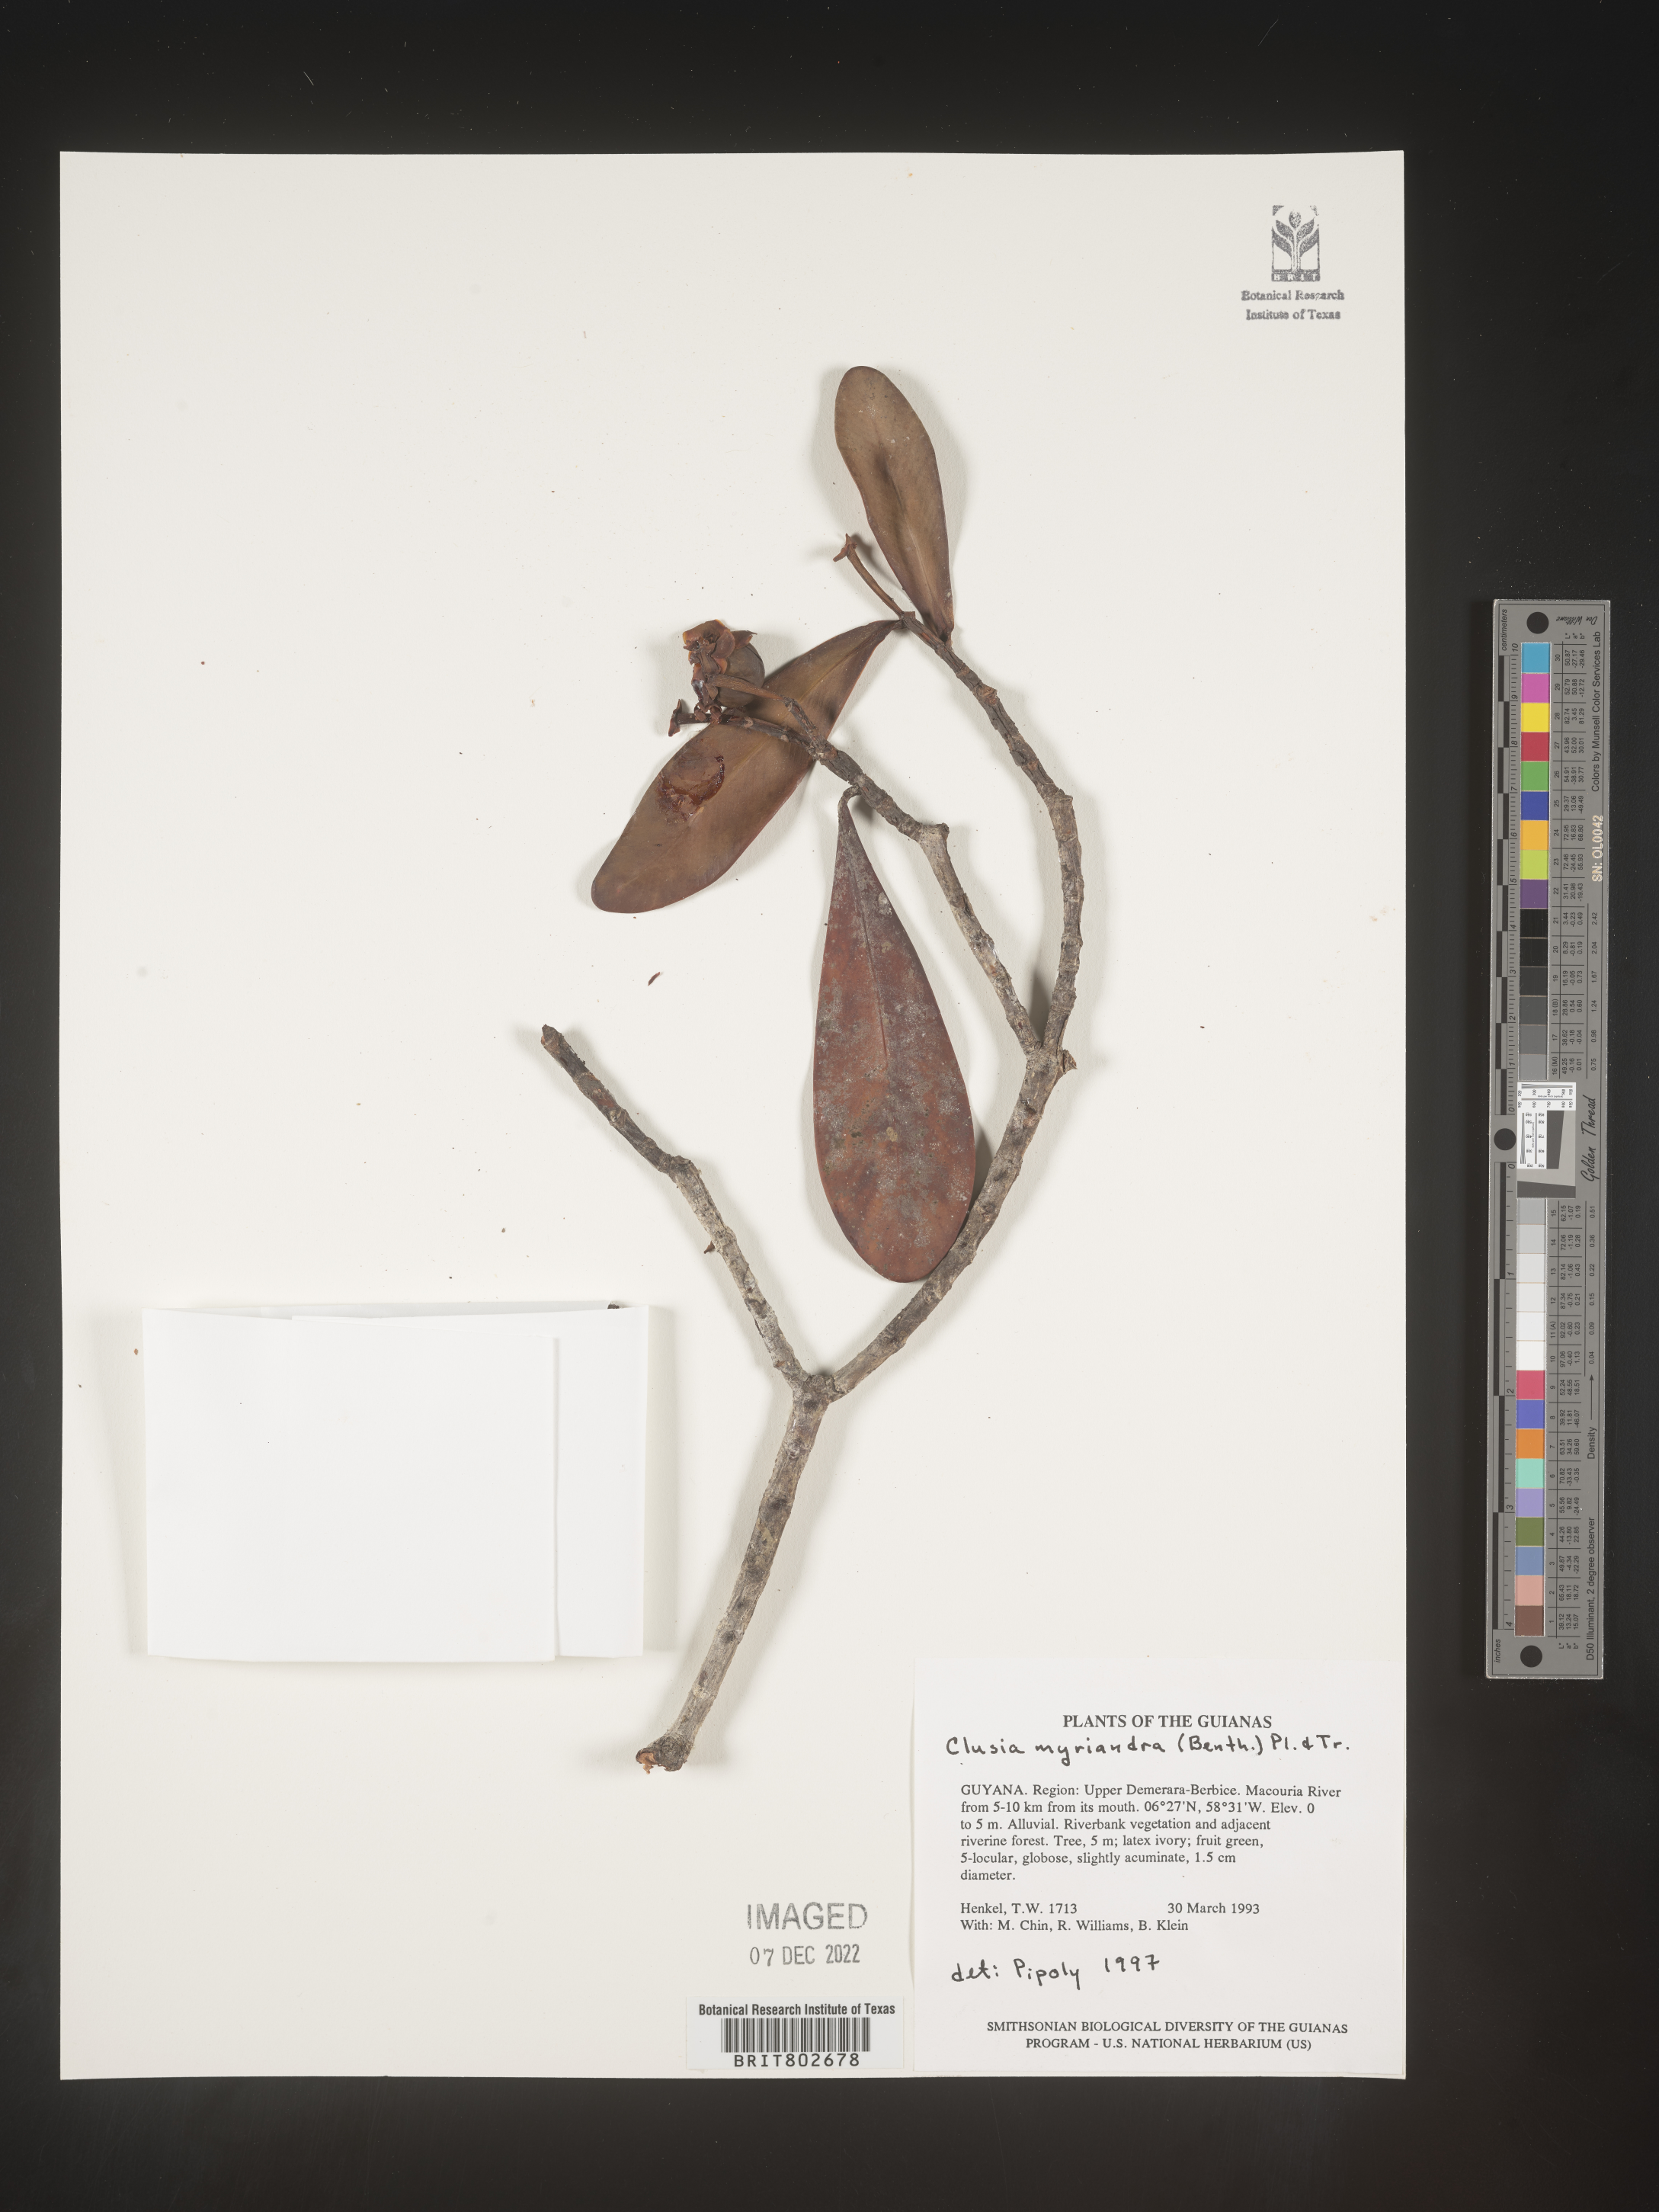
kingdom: Plantae
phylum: Tracheophyta
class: Magnoliopsida
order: Malpighiales
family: Clusiaceae
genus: Clusia
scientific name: Clusia myriandra
